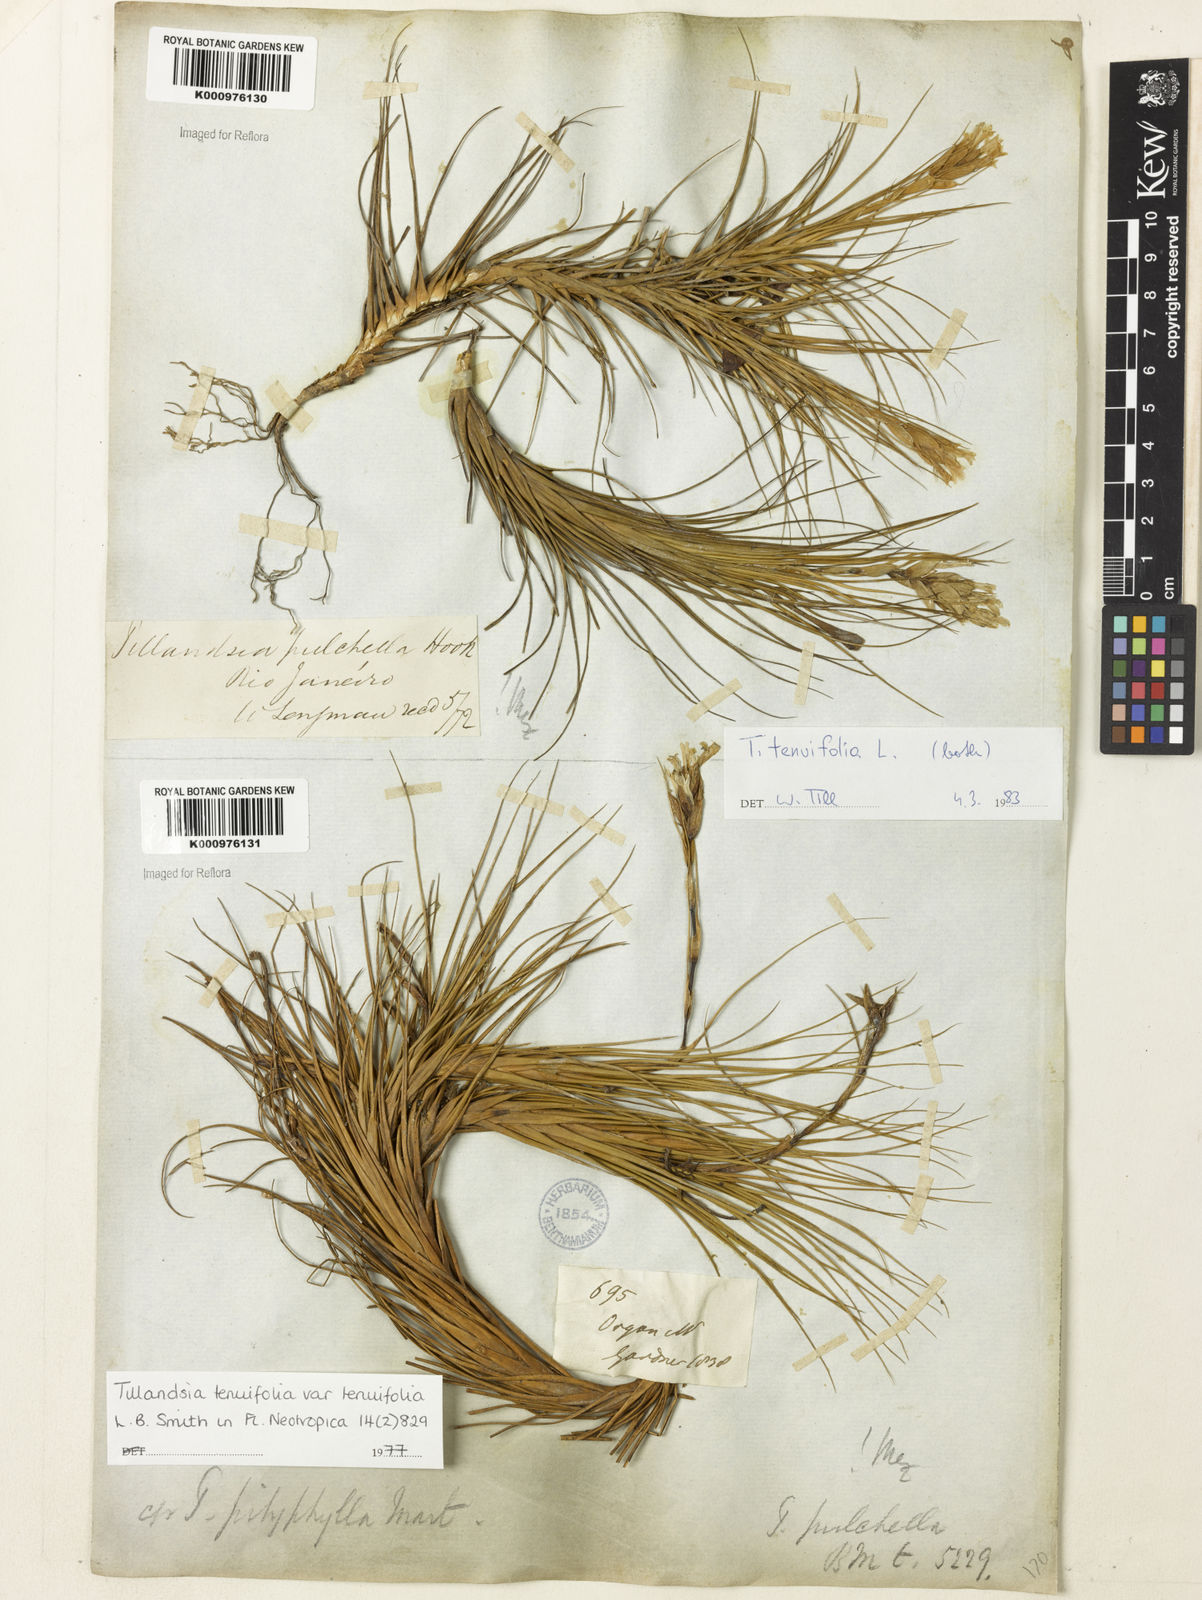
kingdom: Plantae
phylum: Tracheophyta
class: Liliopsida
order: Poales
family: Bromeliaceae
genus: Tillandsia
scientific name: Tillandsia tenuifolia
